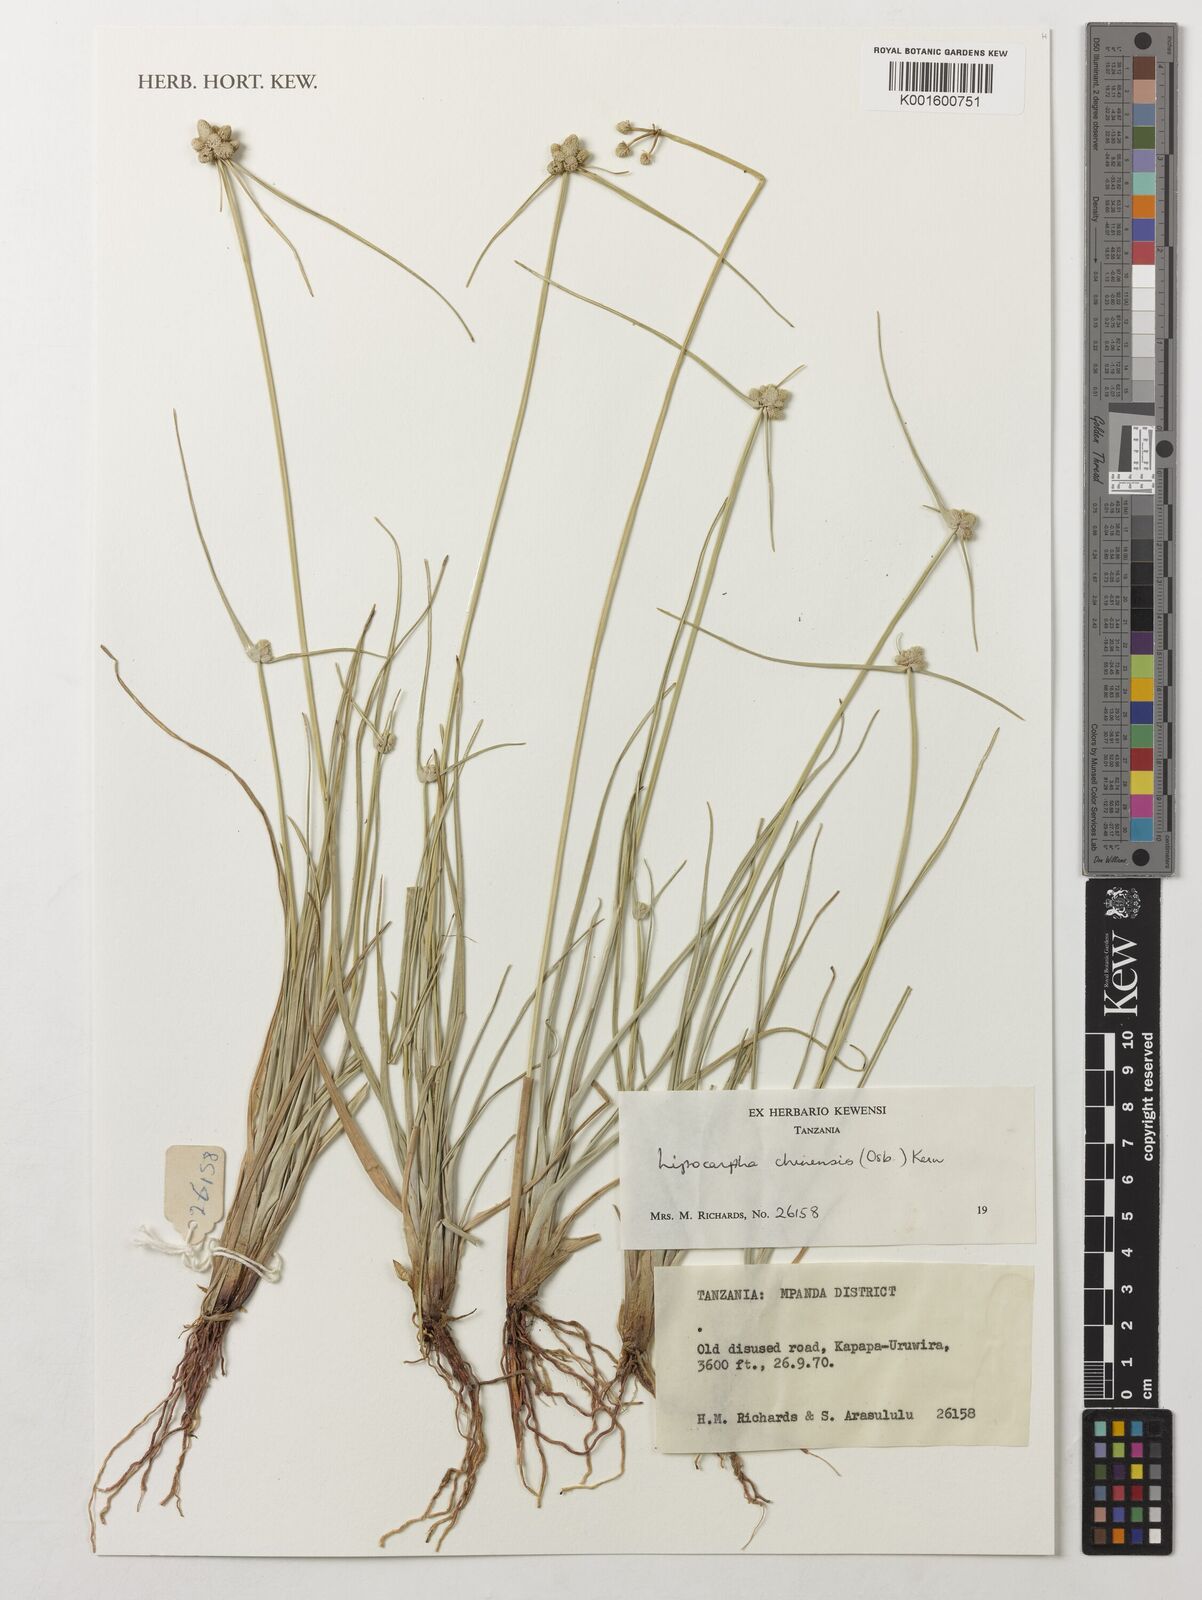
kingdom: Plantae
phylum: Tracheophyta
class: Liliopsida
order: Poales
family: Cyperaceae
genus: Cyperus
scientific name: Cyperus albescens
